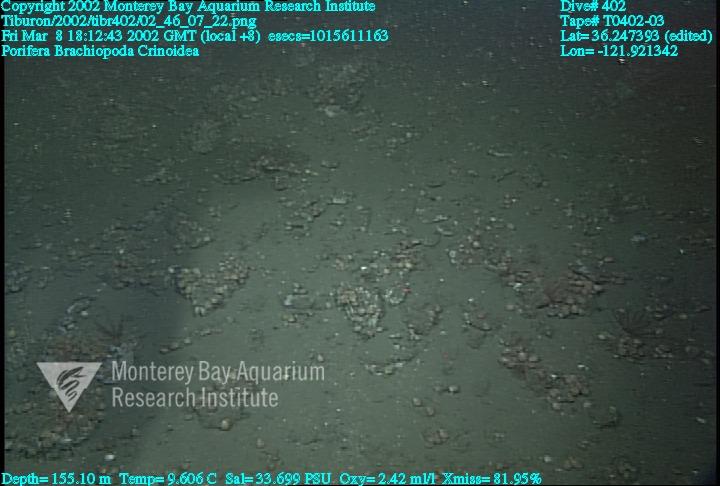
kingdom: Animalia
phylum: Porifera
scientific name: Porifera
